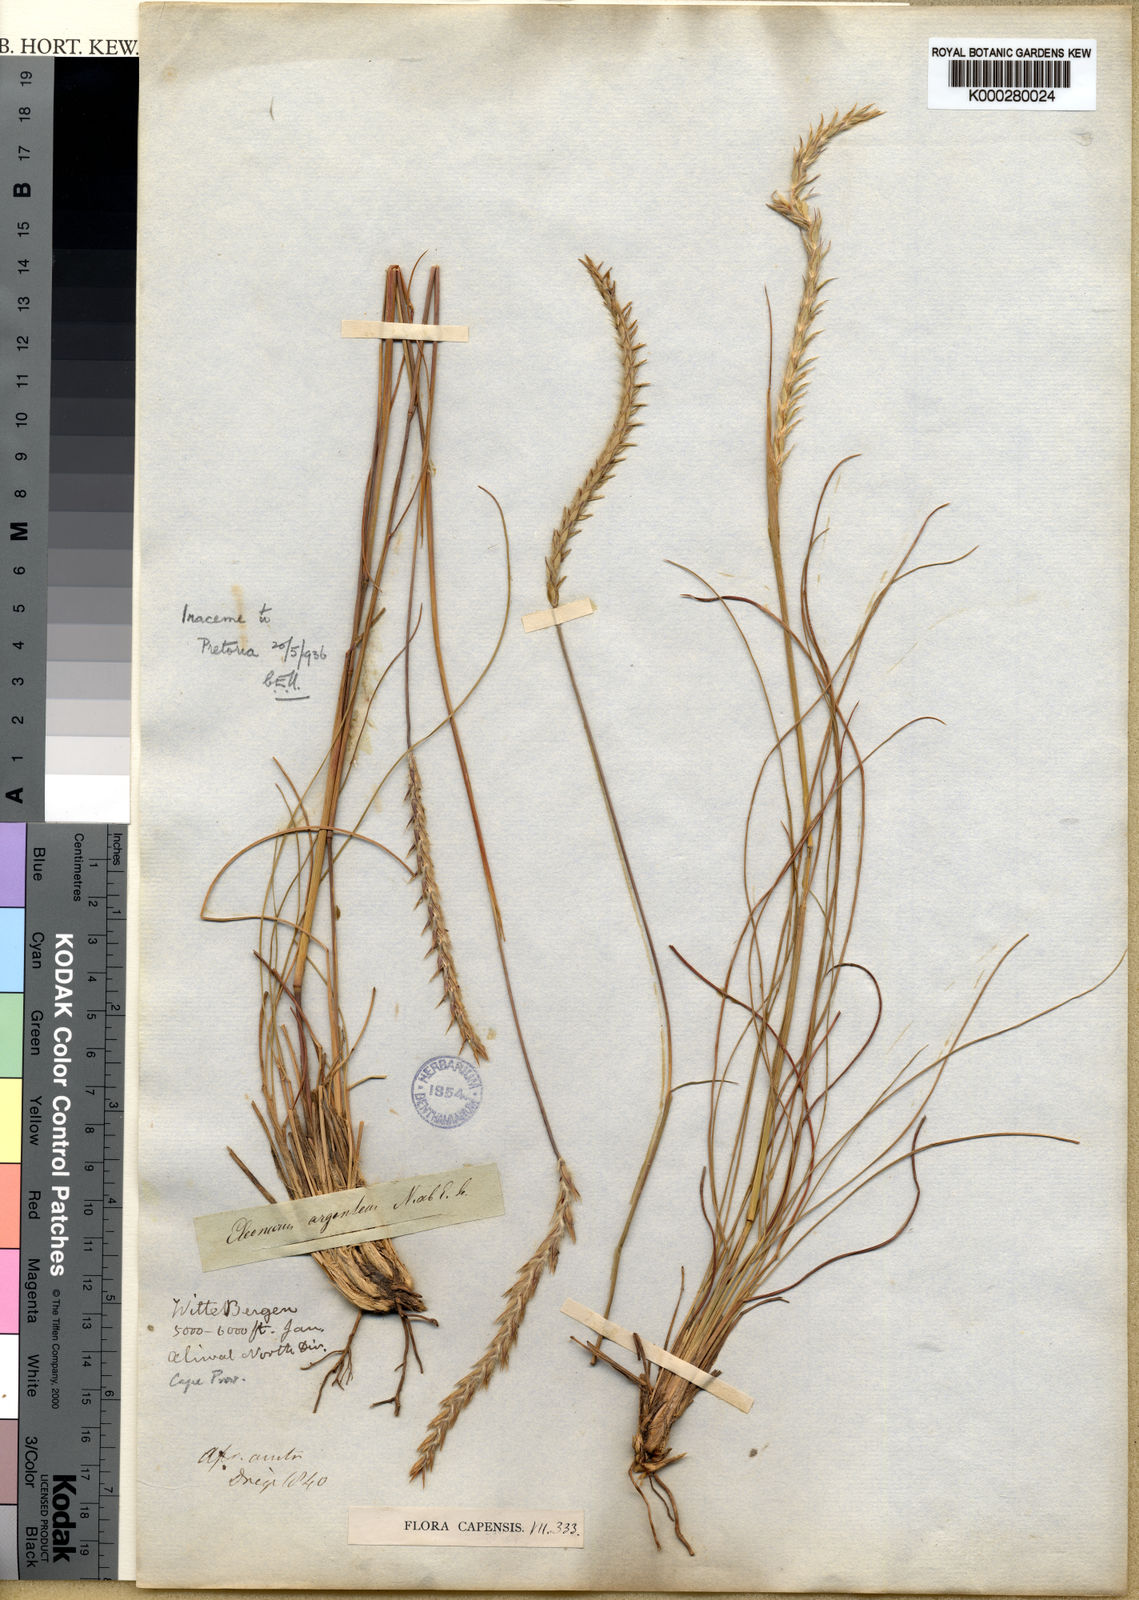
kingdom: Plantae
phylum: Tracheophyta
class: Liliopsida
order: Poales
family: Poaceae
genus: Elionurus
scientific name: Elionurus muticus
